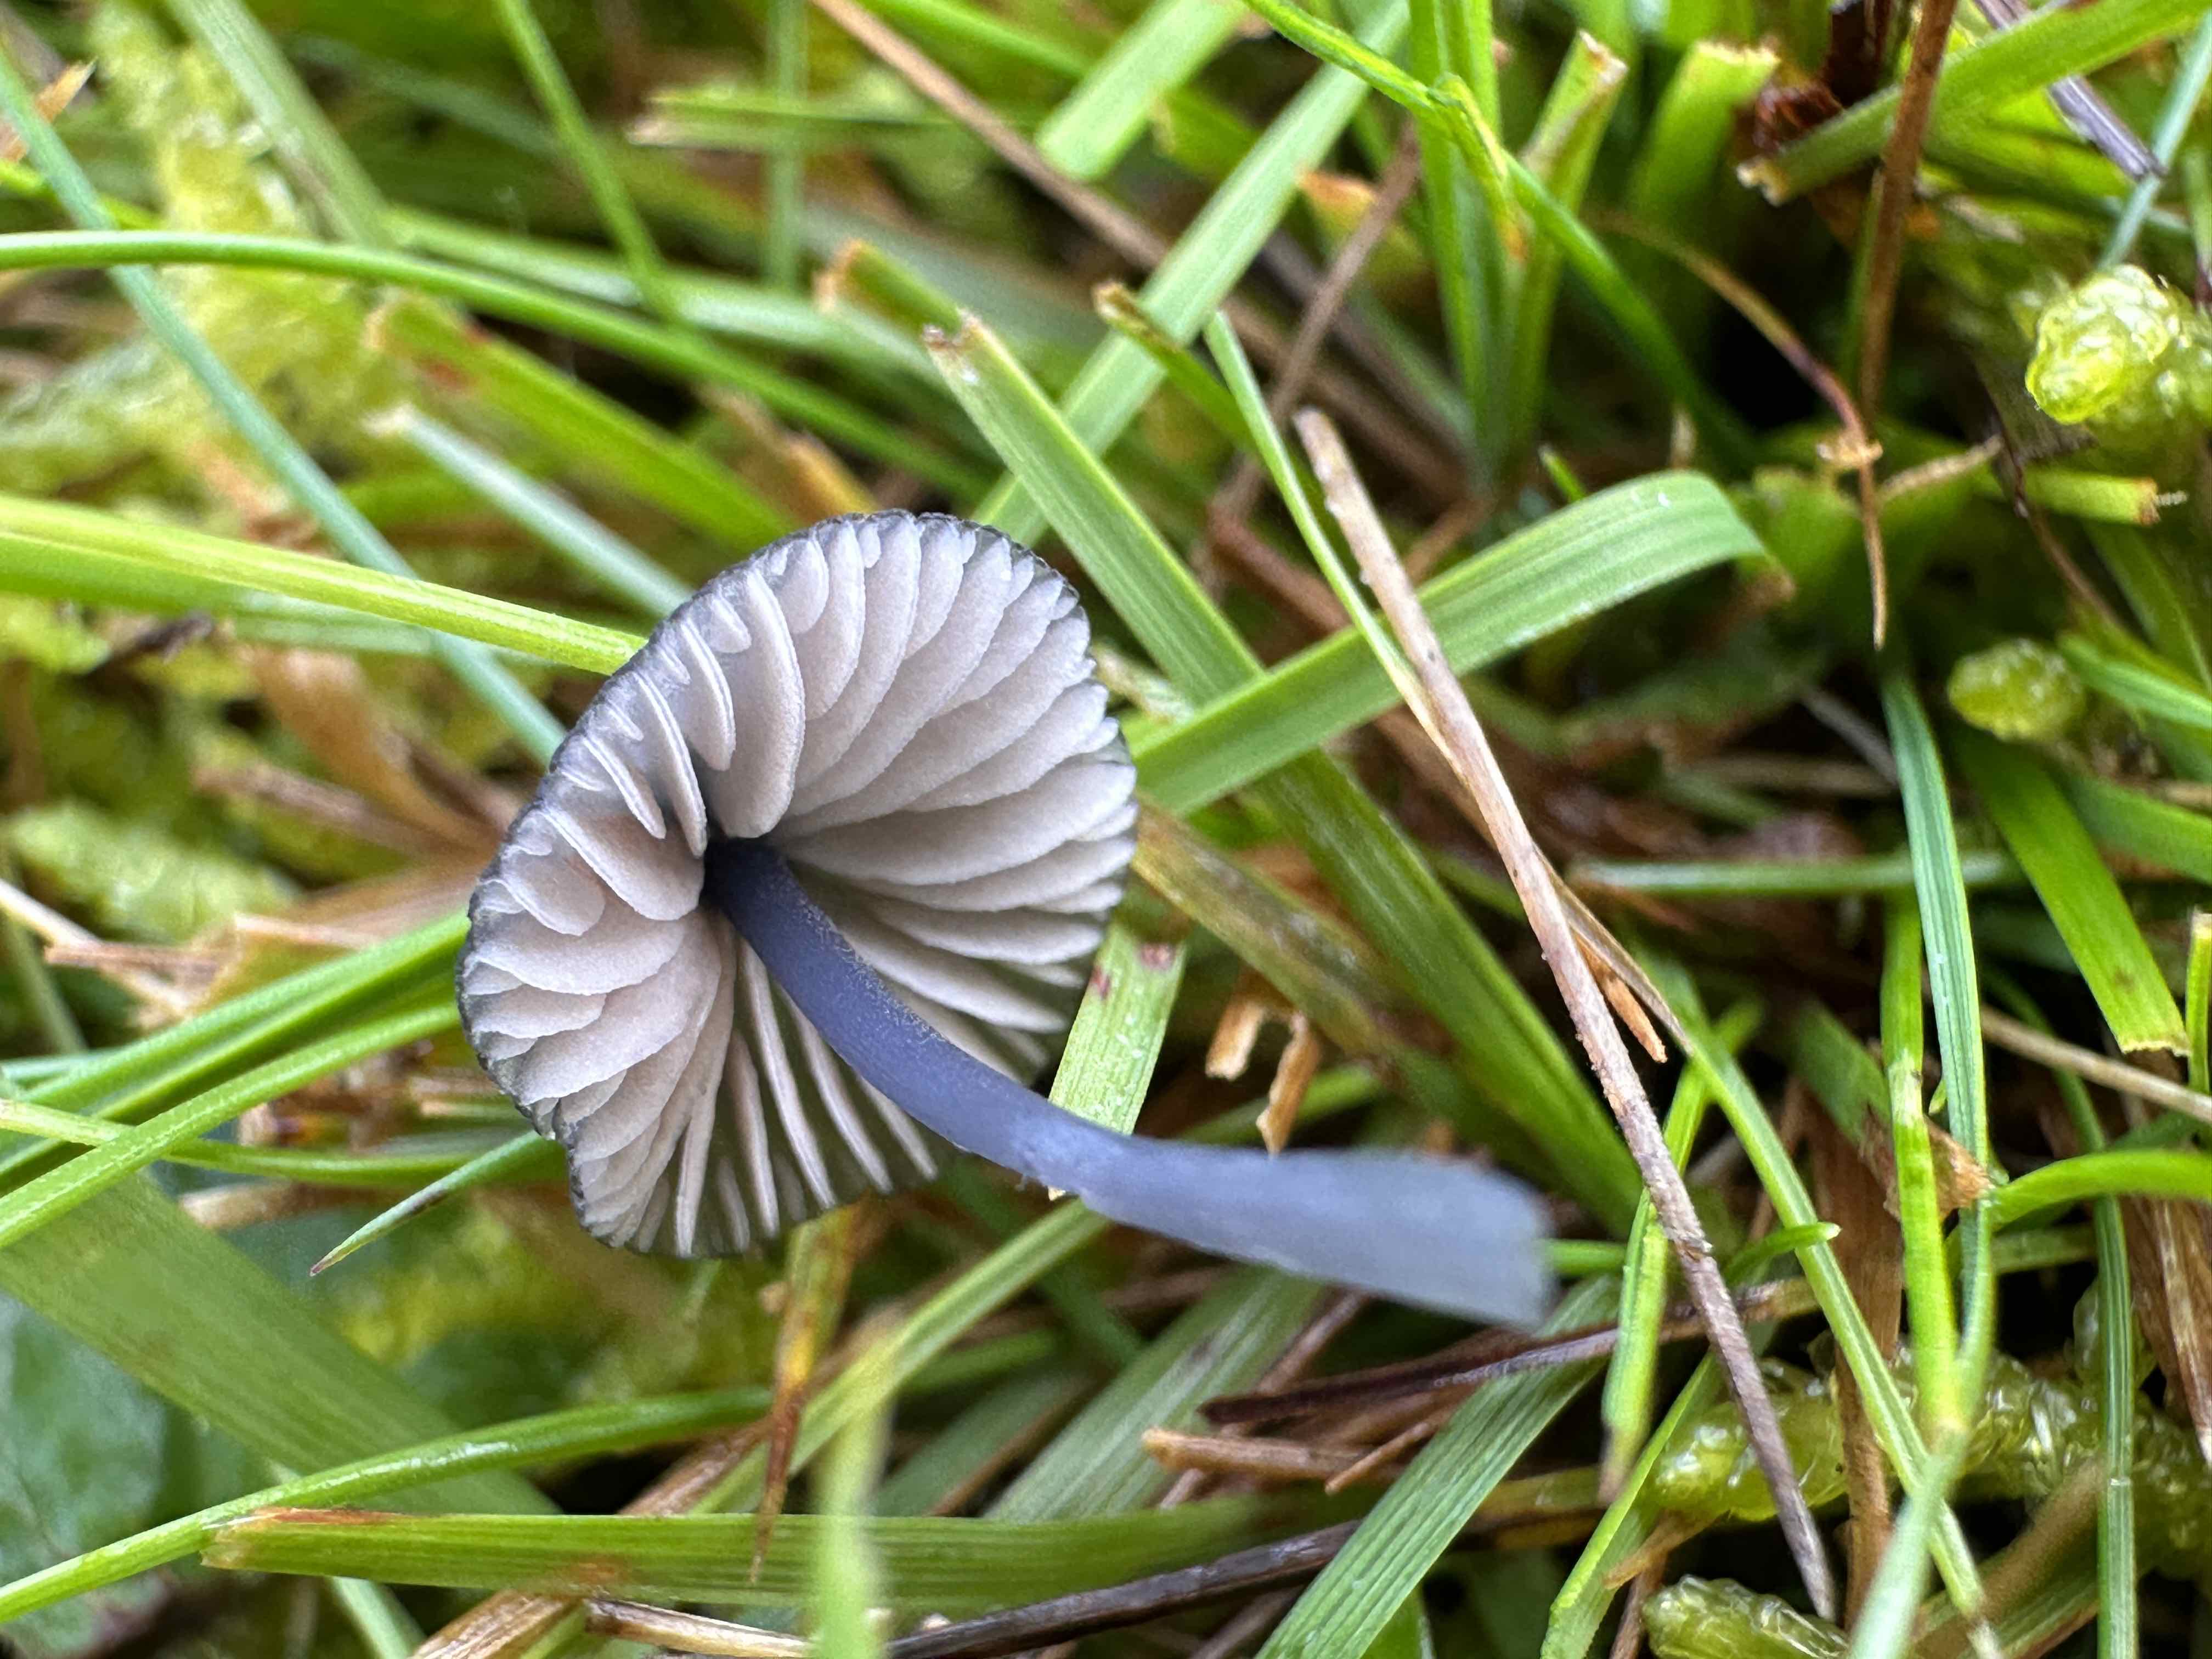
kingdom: Fungi
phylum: Basidiomycota
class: Agaricomycetes
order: Agaricales
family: Entolomataceae
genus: Entoloma
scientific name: Entoloma
